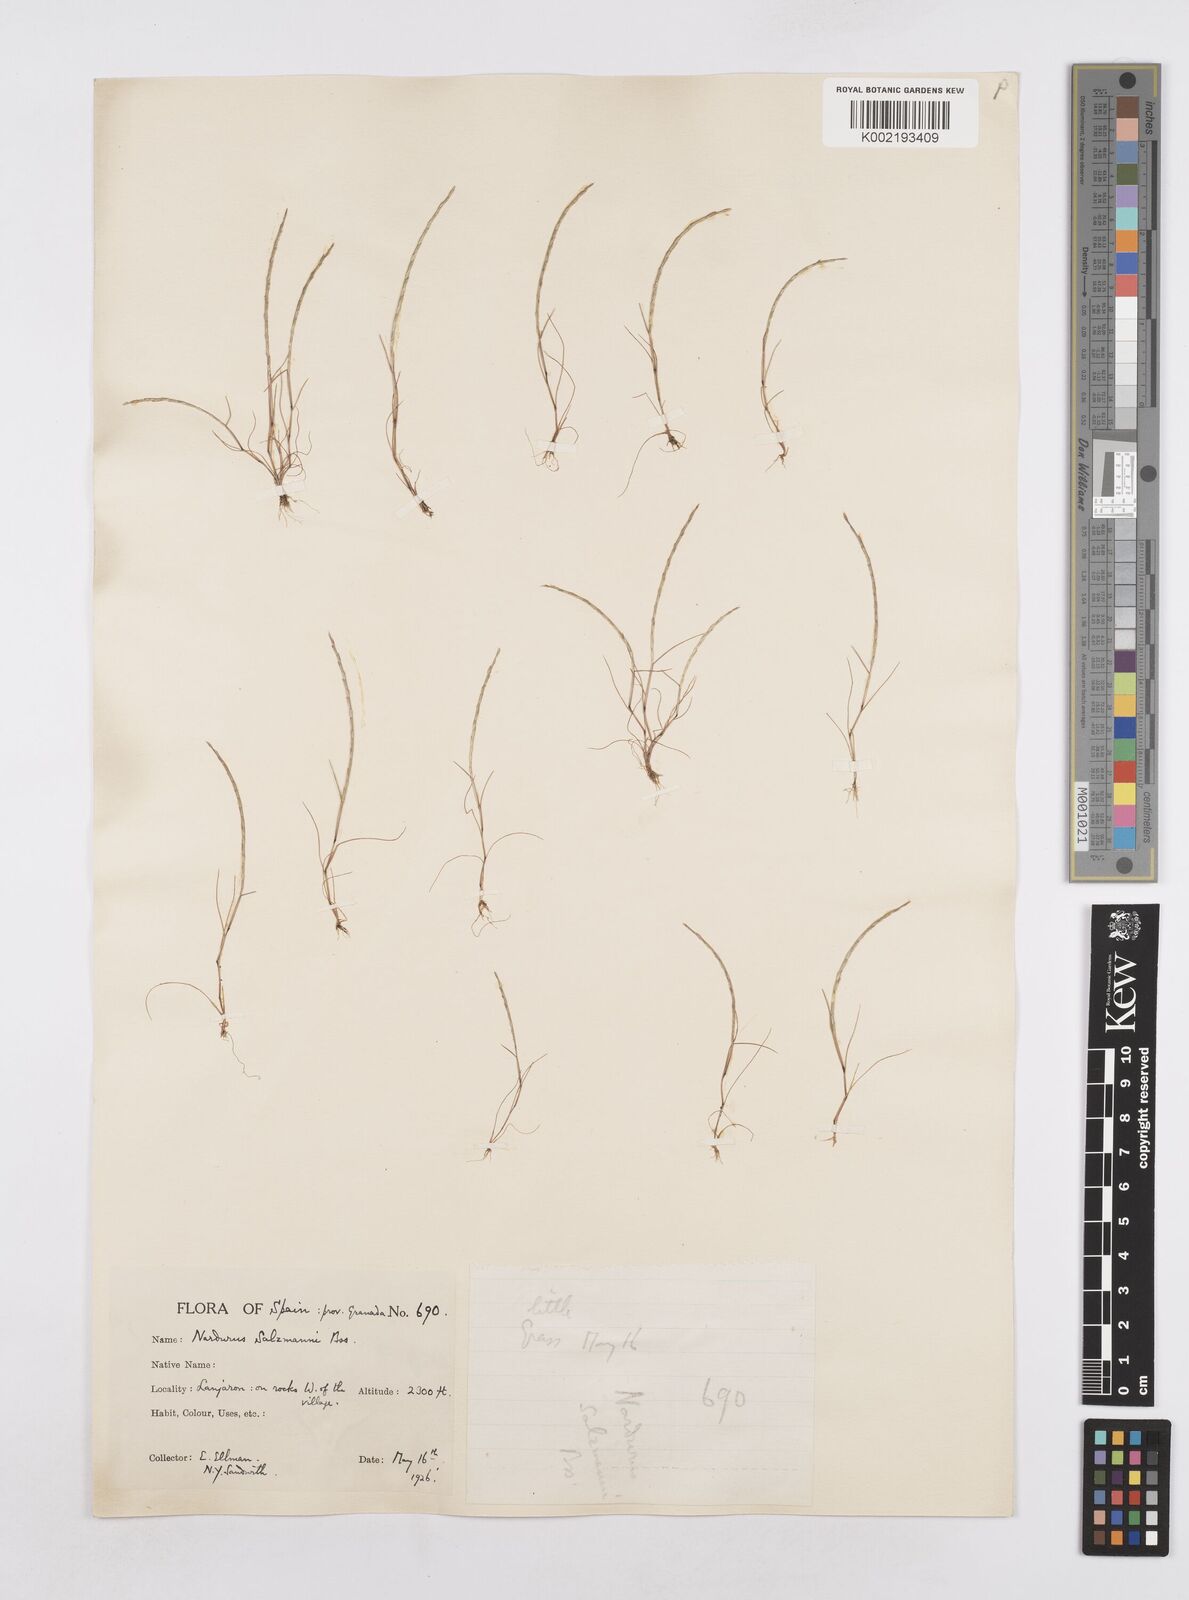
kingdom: Plantae
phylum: Tracheophyta
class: Liliopsida
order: Poales
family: Poaceae
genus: Festuca
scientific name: Festuca salzmannii
